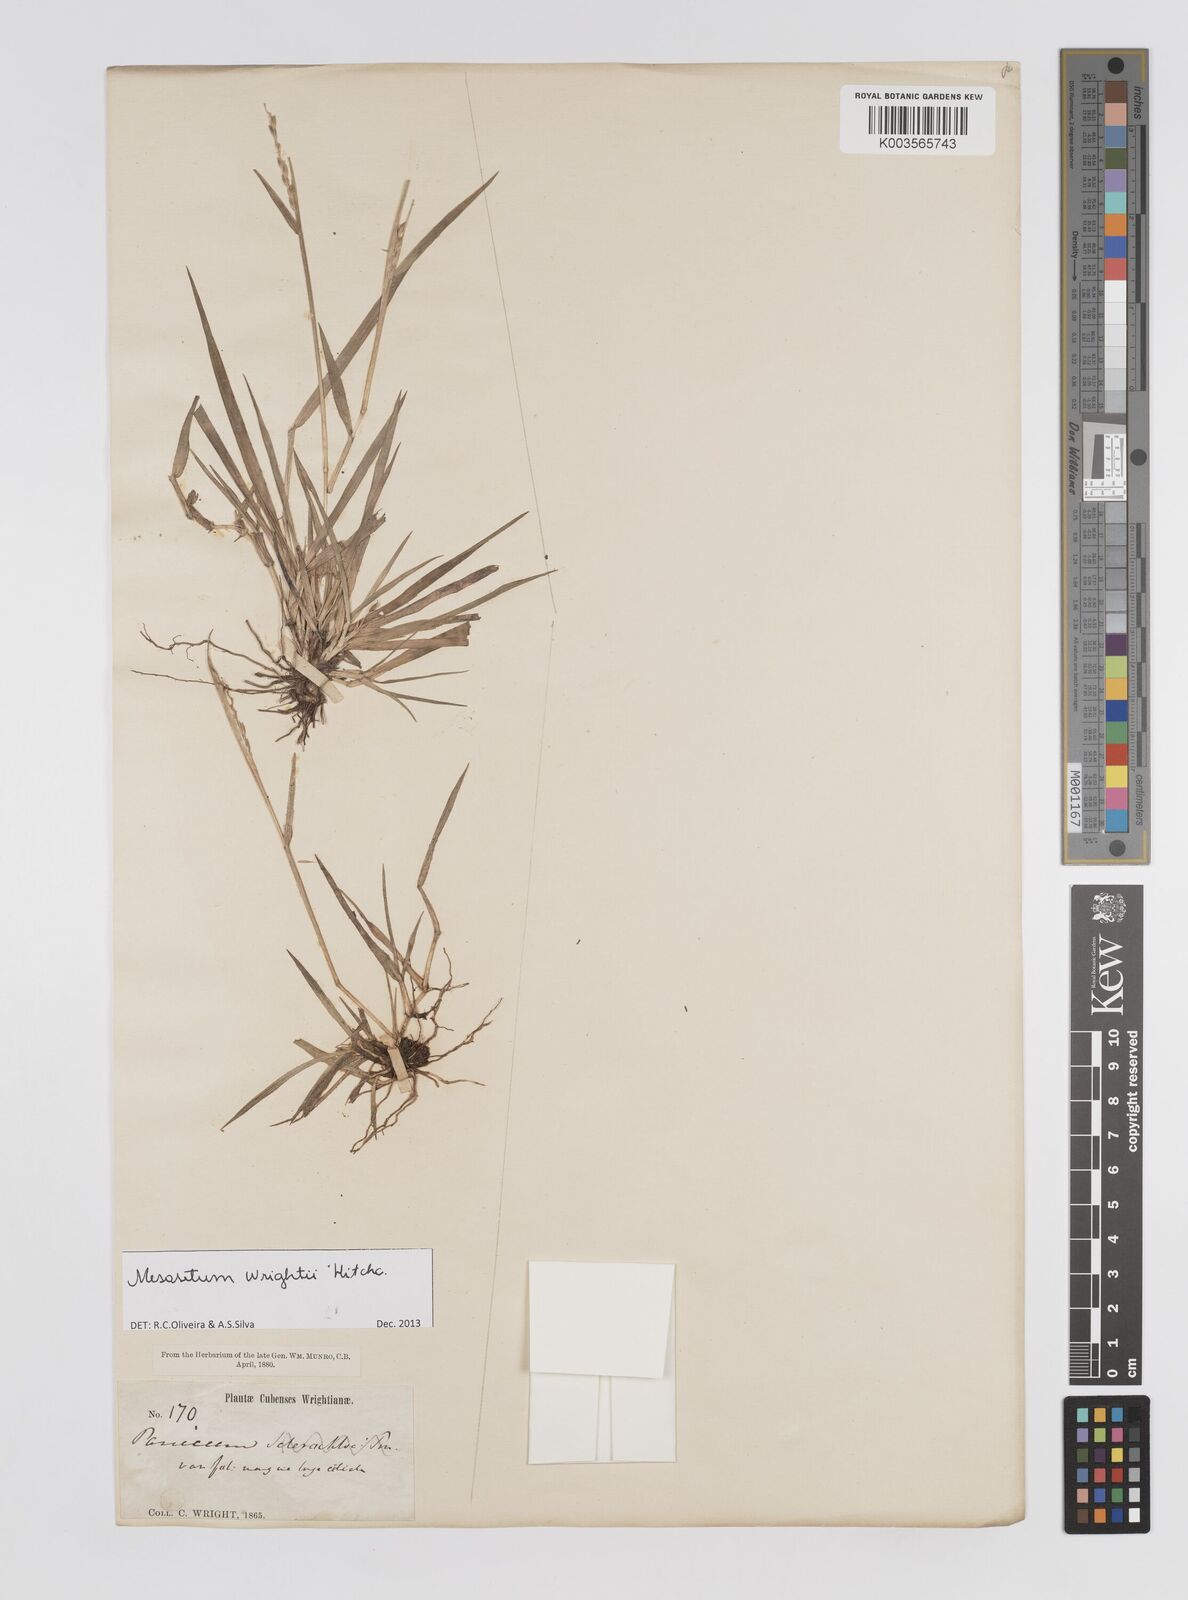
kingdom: Plantae
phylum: Tracheophyta
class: Liliopsida
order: Poales
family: Poaceae
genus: Mesosetum
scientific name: Mesosetum wrightii
